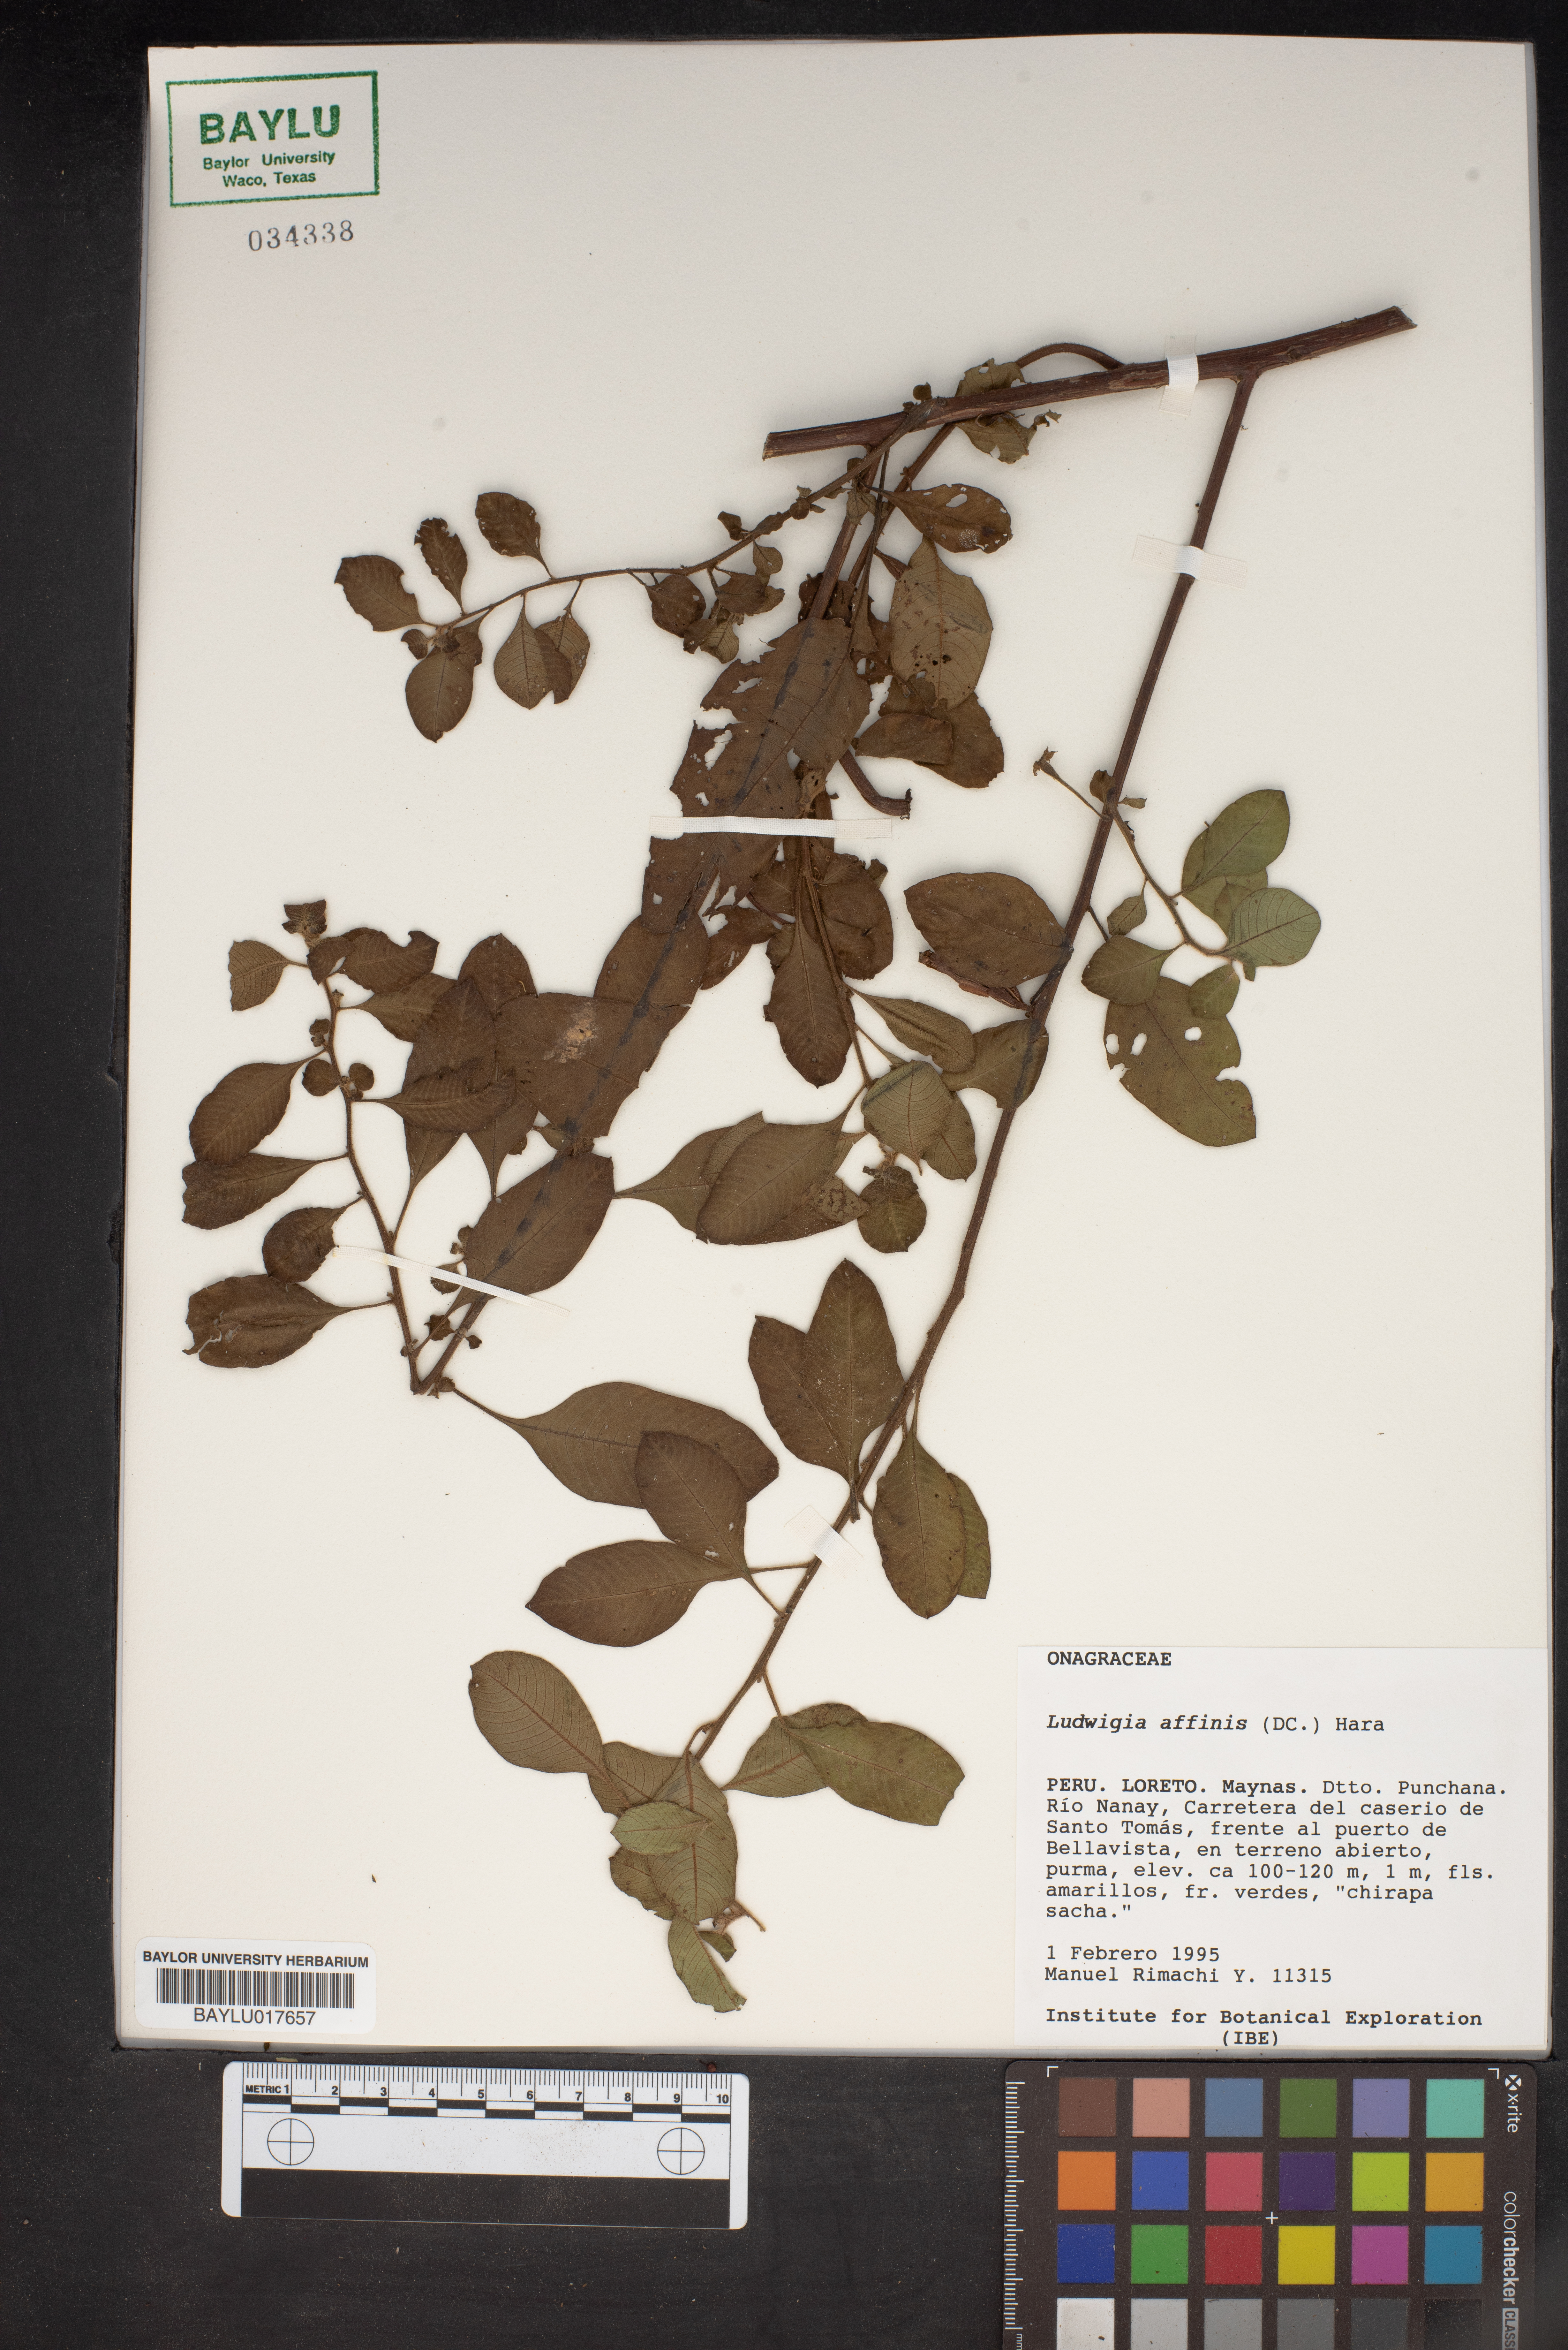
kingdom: Plantae
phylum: Tracheophyta
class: Magnoliopsida
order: Myrtales
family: Onagraceae
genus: Ludwigia
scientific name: Ludwigia affinis
